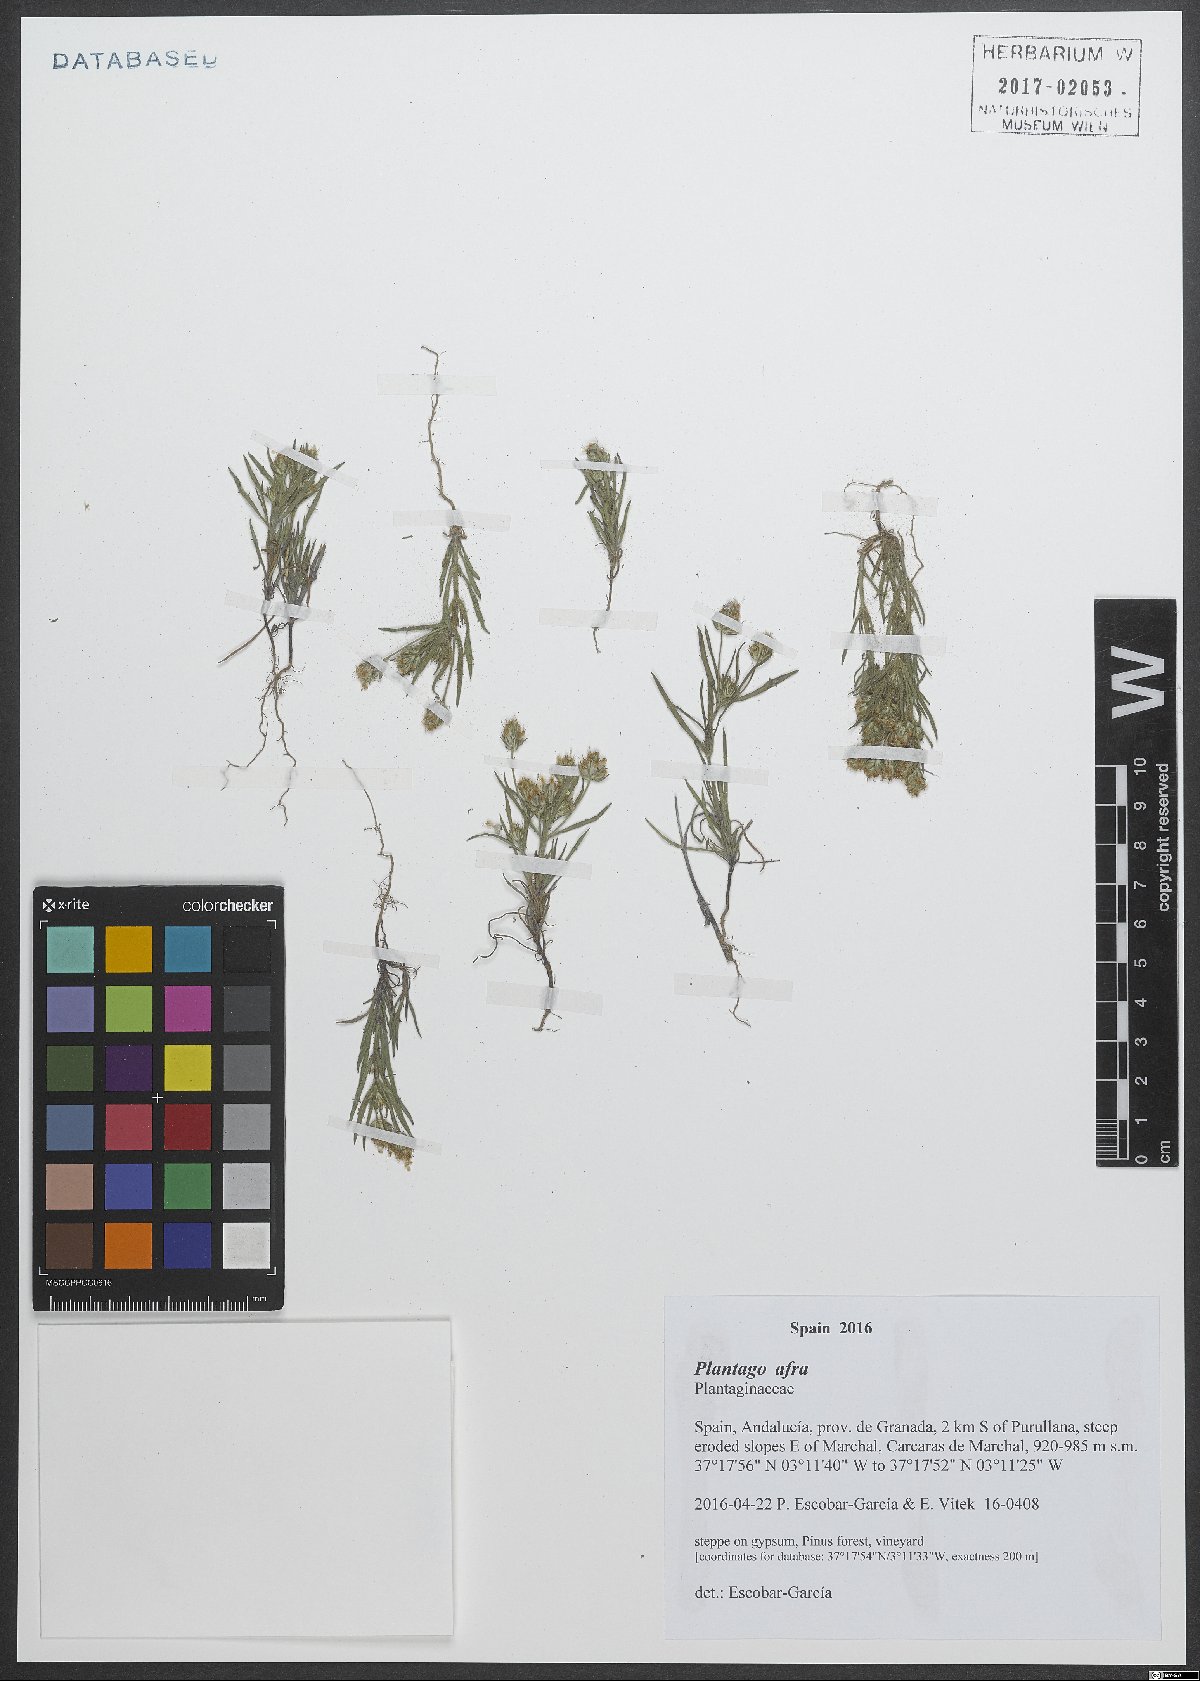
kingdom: Plantae
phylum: Tracheophyta
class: Magnoliopsida
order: Lamiales
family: Plantaginaceae
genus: Plantago
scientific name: Plantago afra
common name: Glandular plantain
